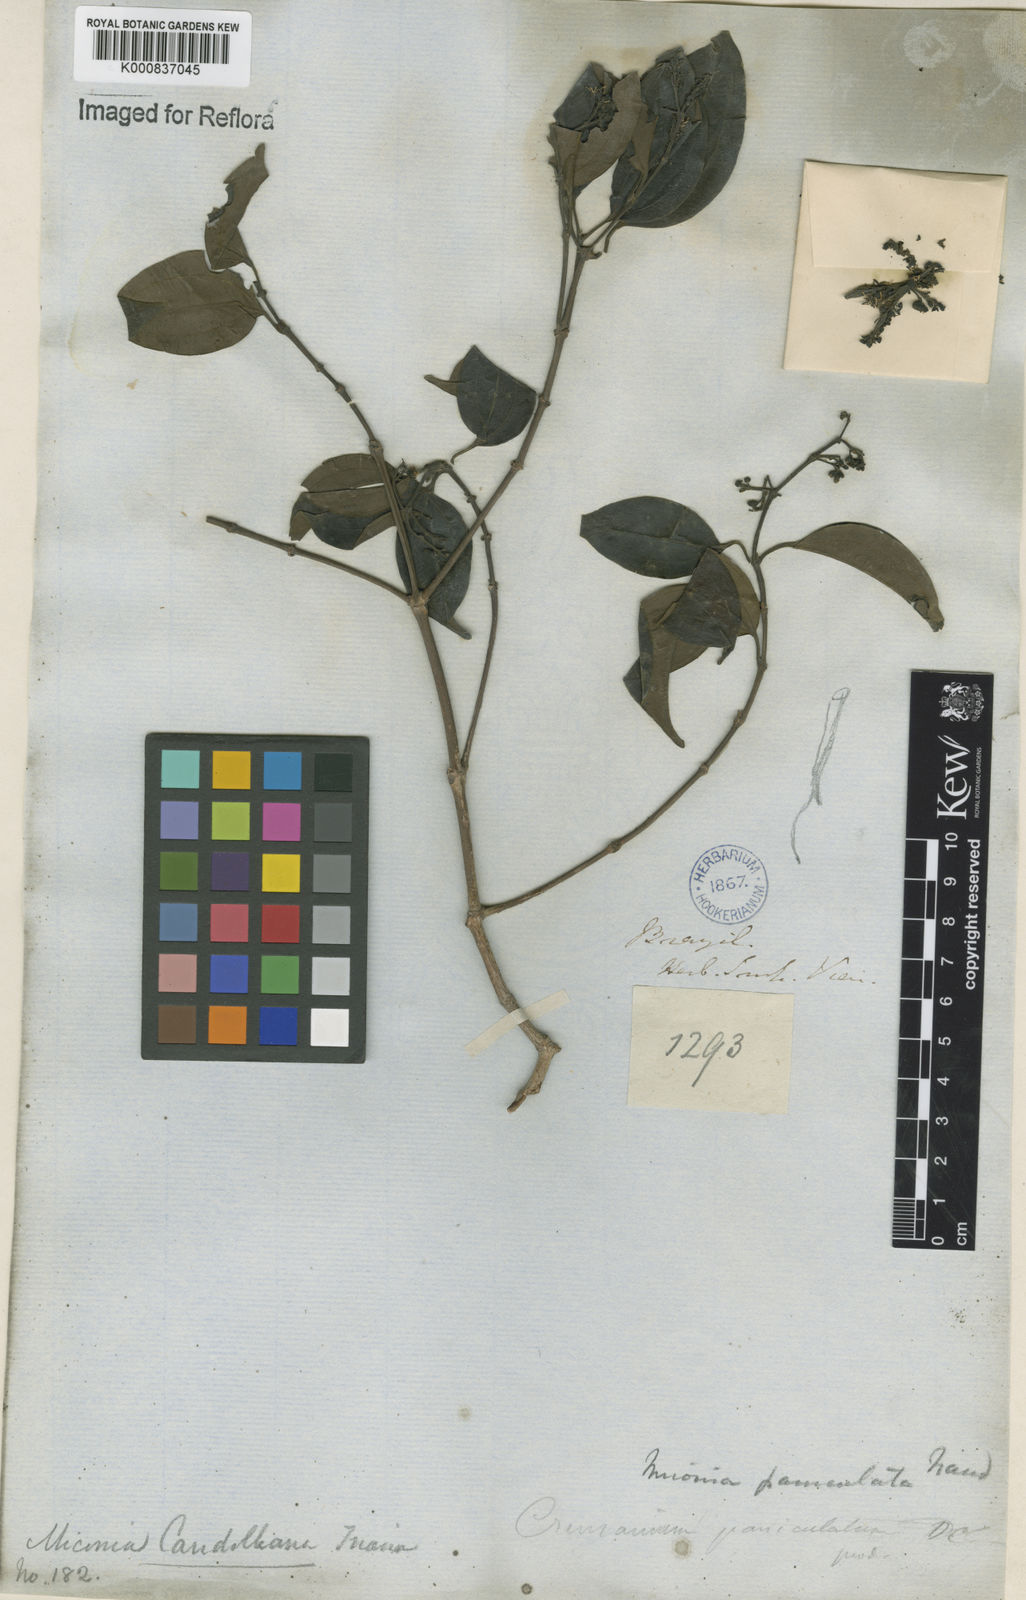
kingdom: Plantae
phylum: Tracheophyta
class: Magnoliopsida
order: Myrtales
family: Melastomataceae
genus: Miconia
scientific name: Miconia cinnamomifolia
